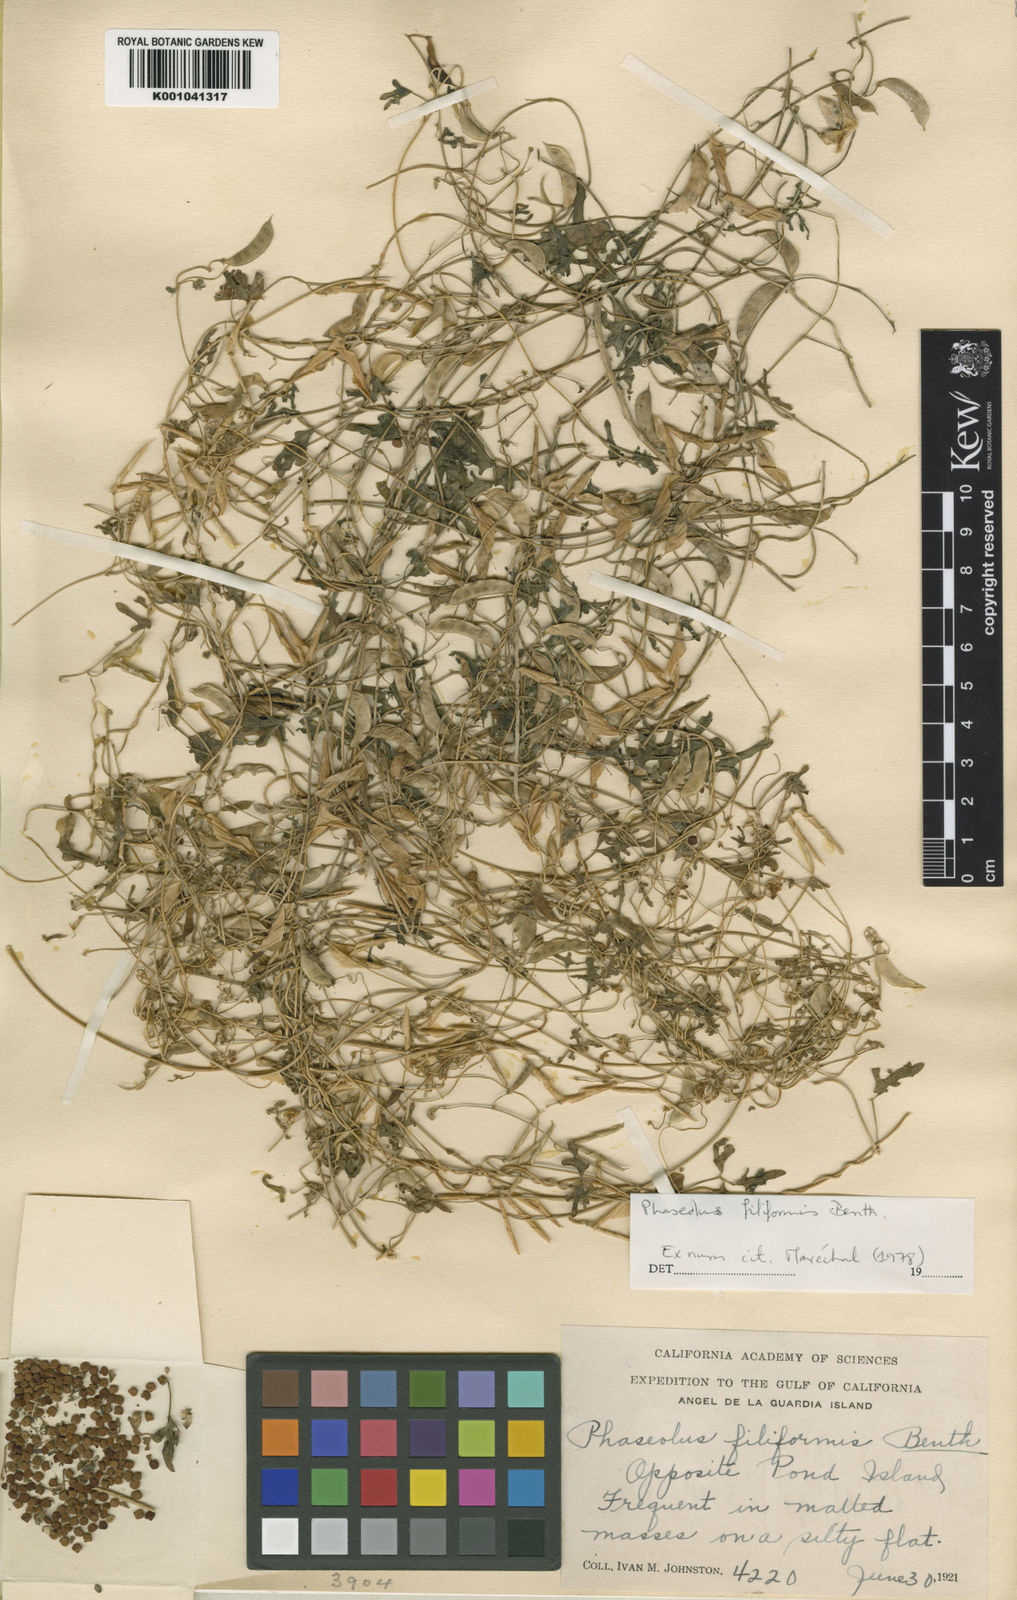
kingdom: Plantae
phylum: Tracheophyta
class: Magnoliopsida
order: Fabales
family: Fabaceae
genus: Phaseolus
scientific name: Phaseolus filiformis
